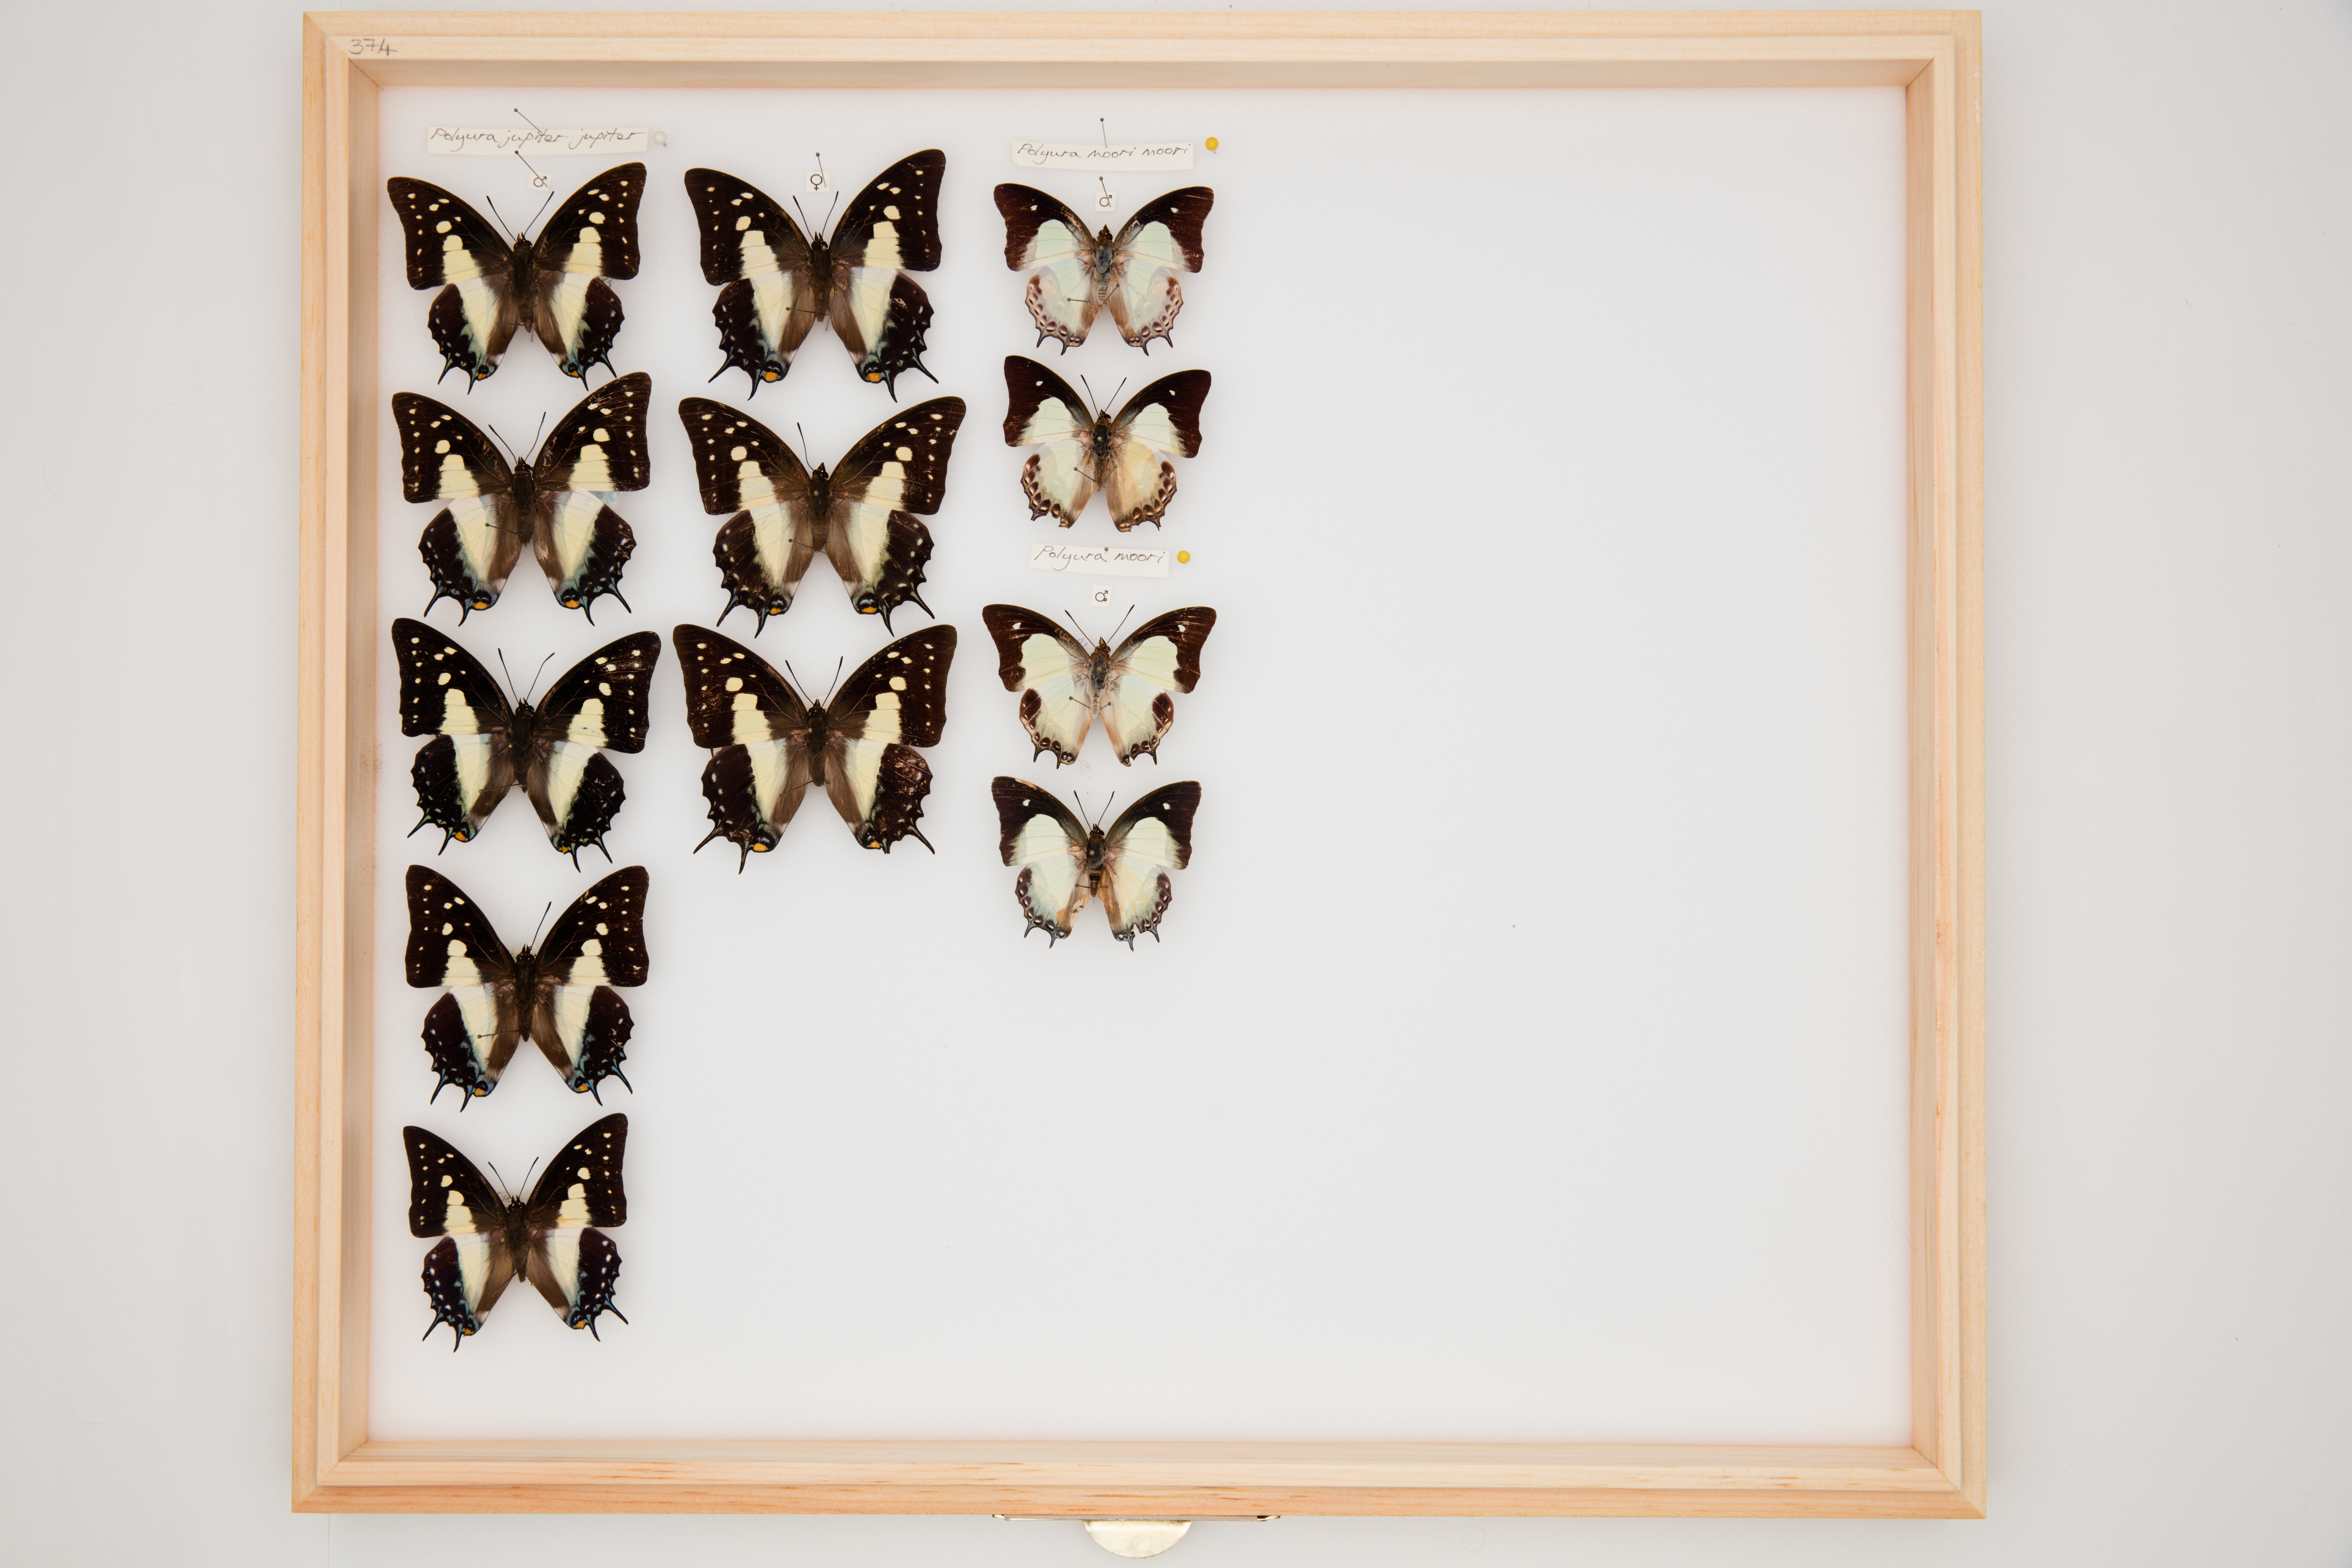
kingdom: Animalia
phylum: Arthropoda
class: Insecta
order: Lepidoptera
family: Nymphalidae
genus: Polyura
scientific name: Polyura jupiter
